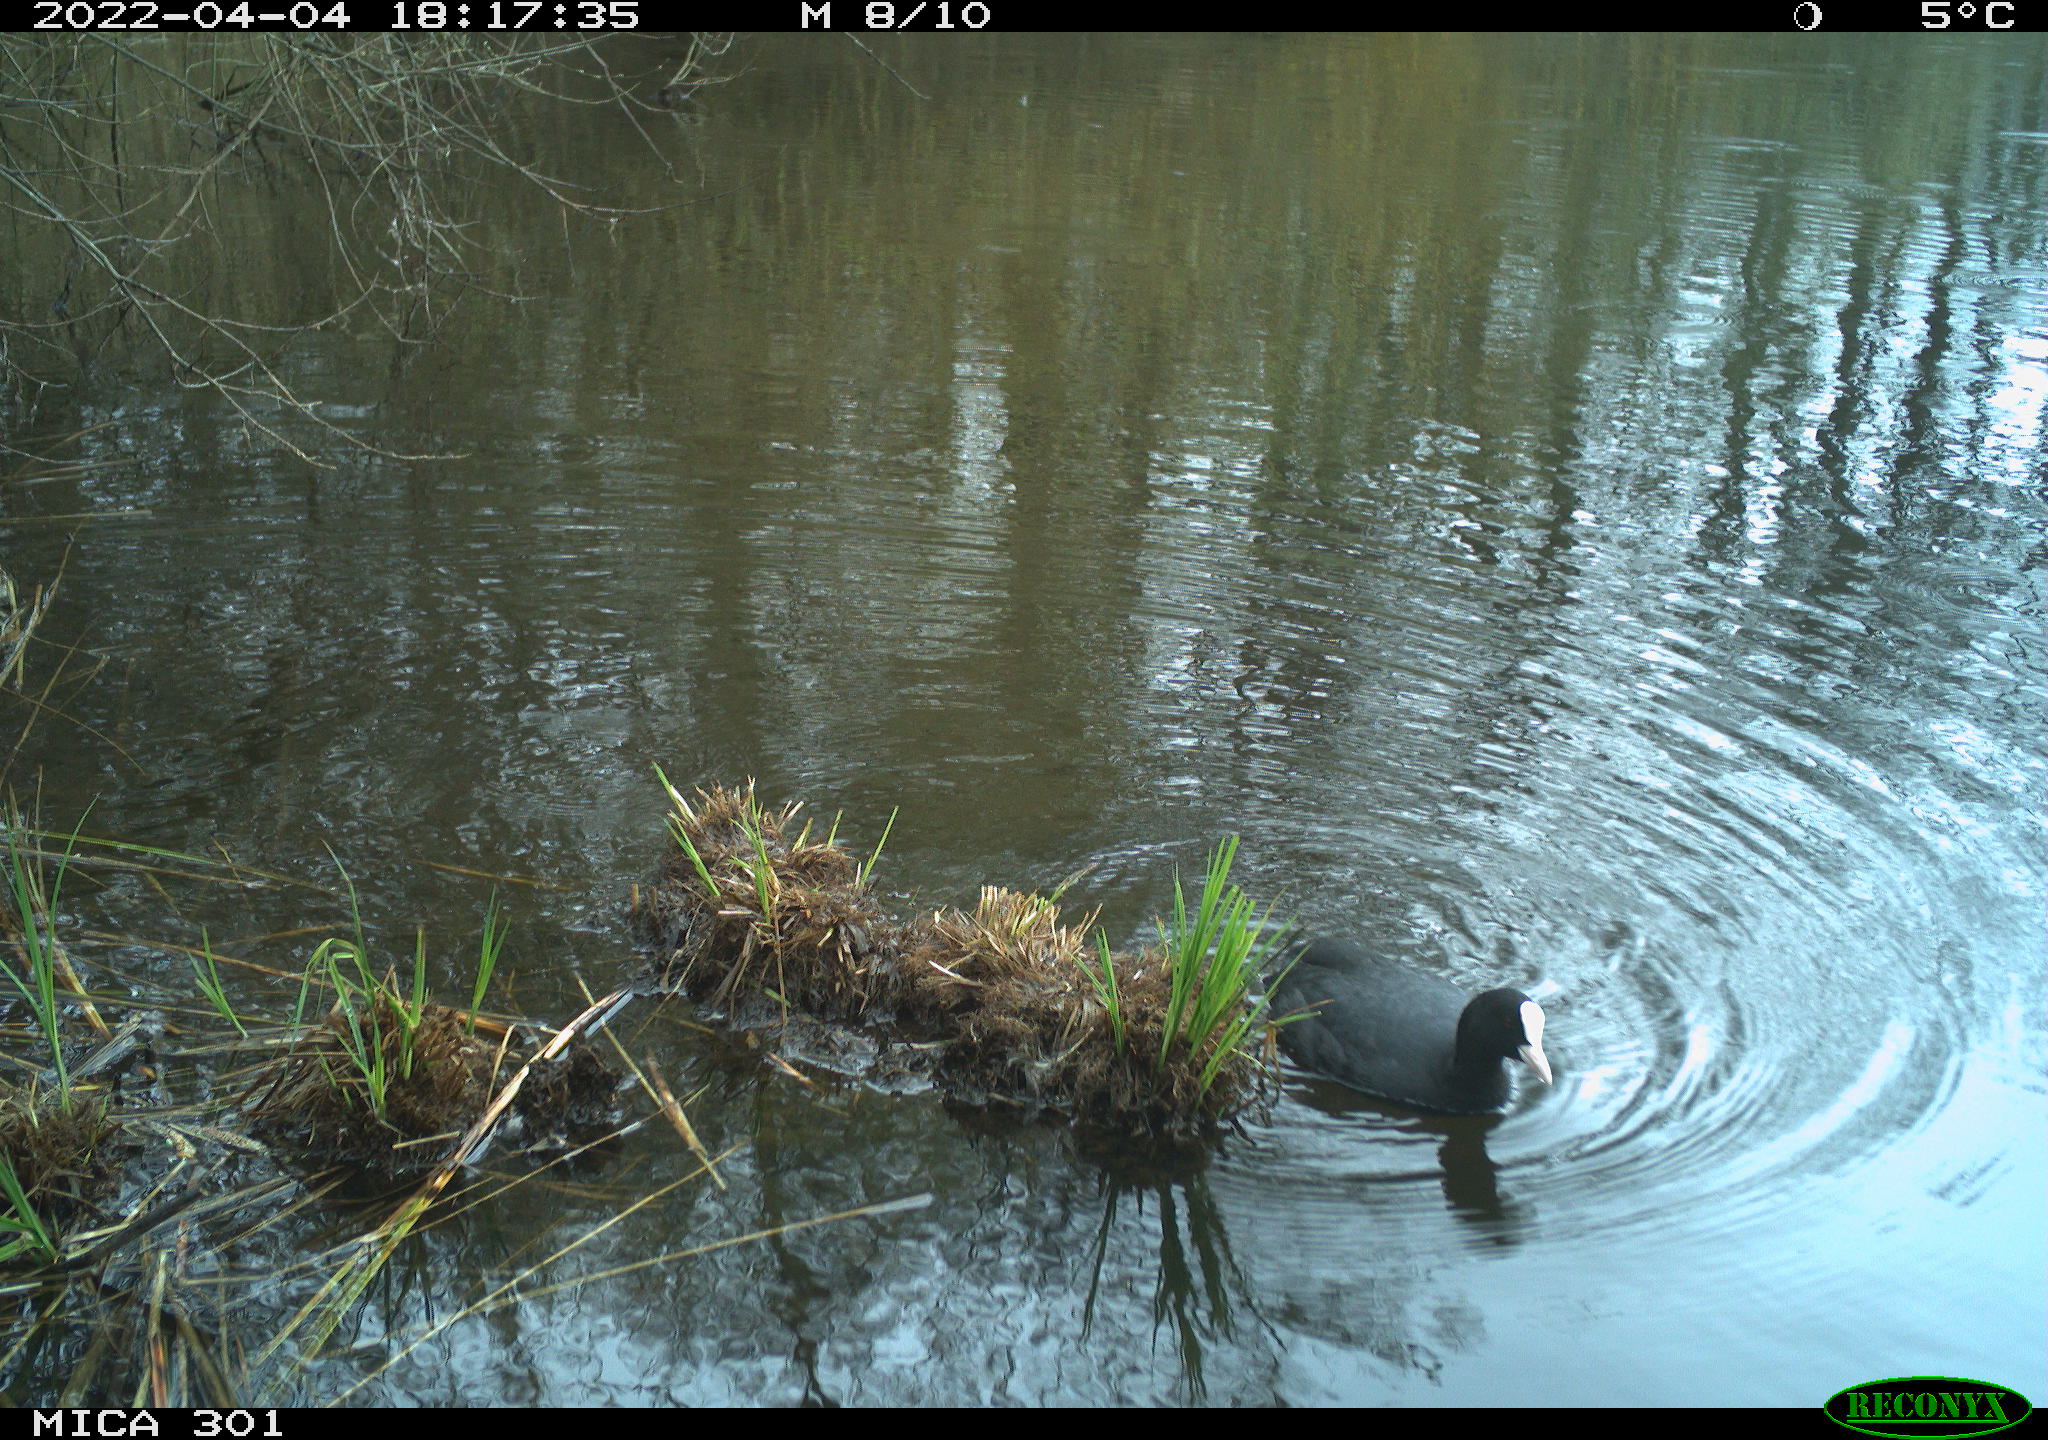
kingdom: Animalia
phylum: Chordata
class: Aves
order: Gruiformes
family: Rallidae
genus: Fulica
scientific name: Fulica atra
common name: Eurasian coot
